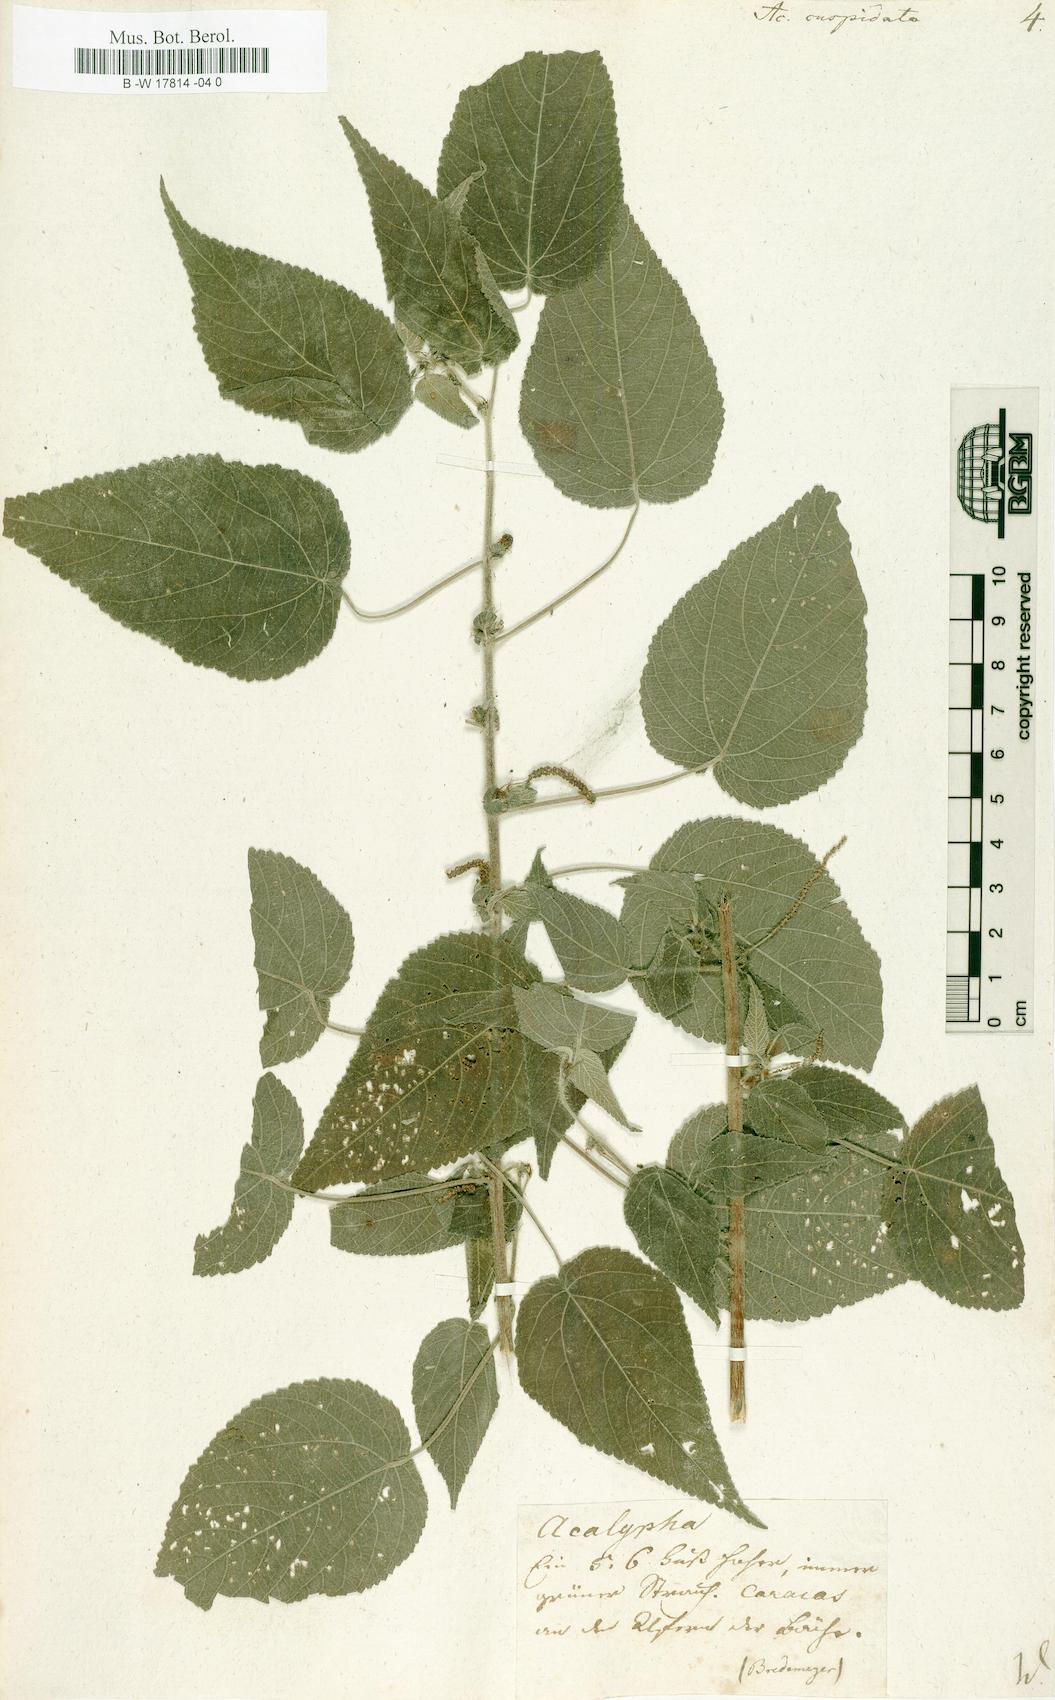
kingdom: Plantae
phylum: Tracheophyta
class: Magnoliopsida
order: Malpighiales
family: Euphorbiaceae
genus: Acalypha
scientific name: Acalypha cuspidata
